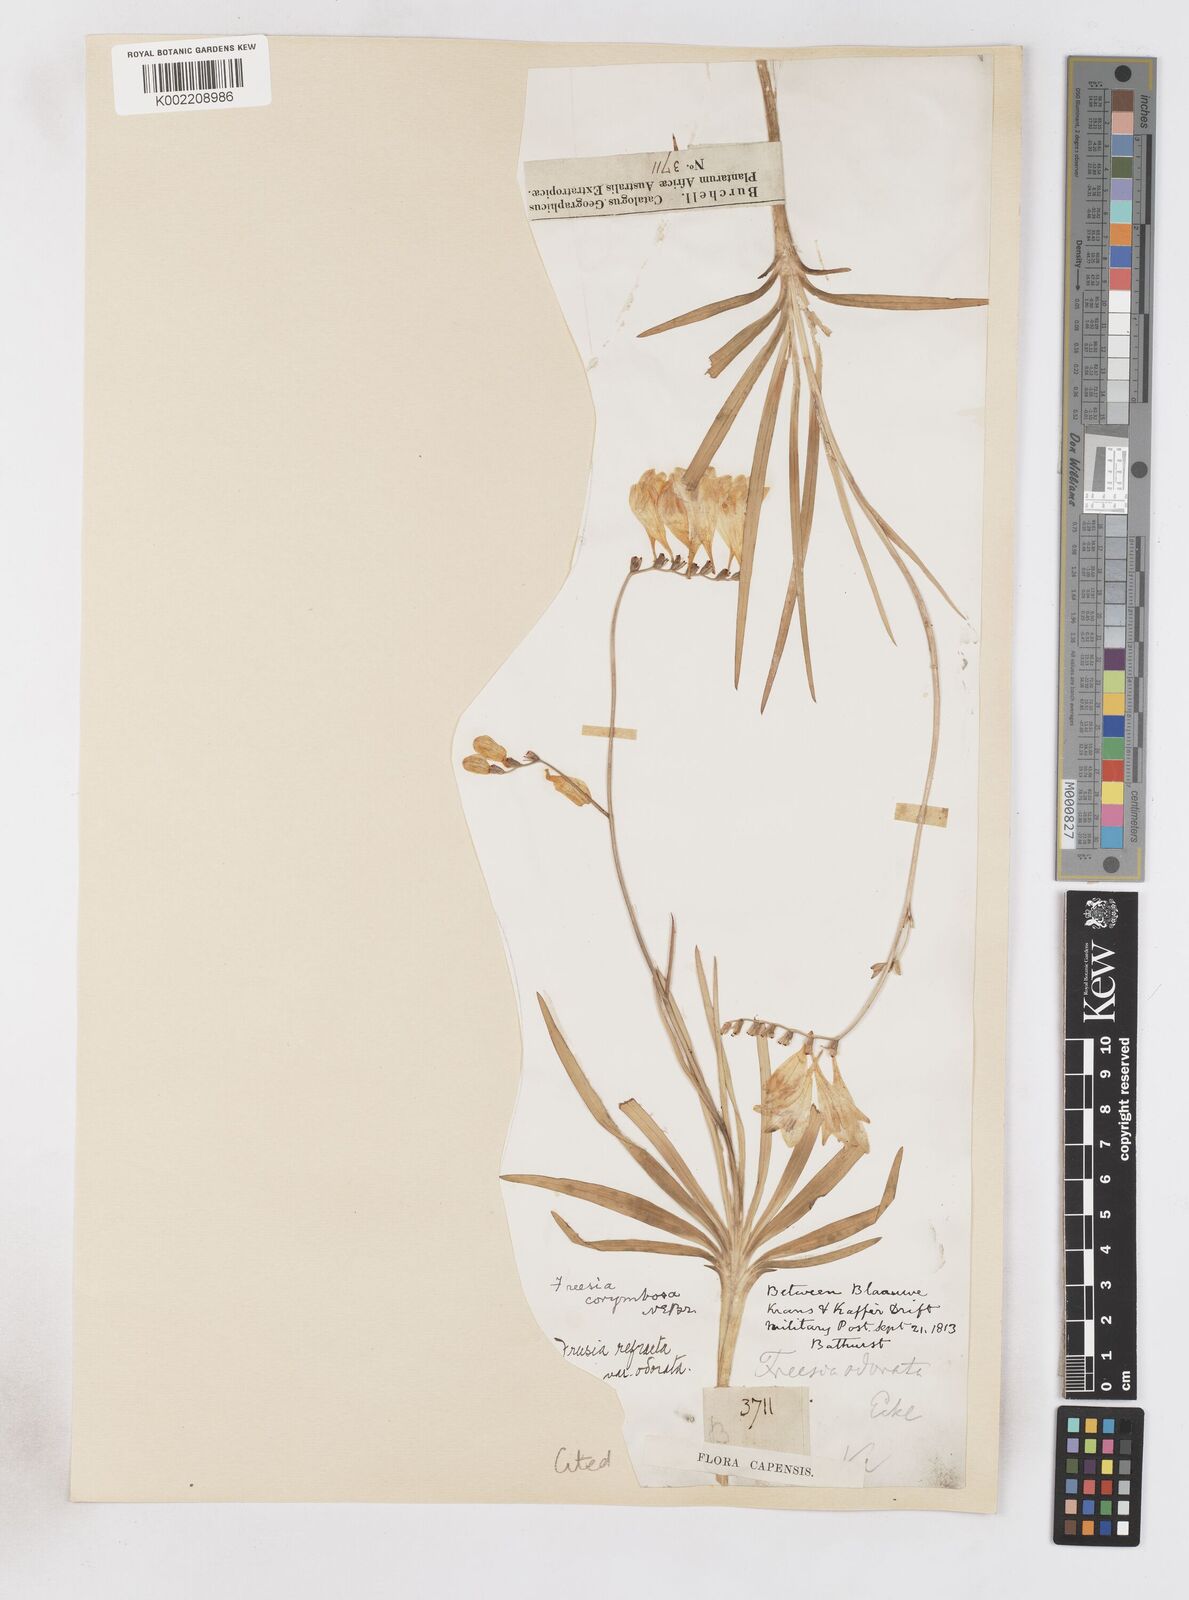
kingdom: Plantae
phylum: Tracheophyta
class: Liliopsida
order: Asparagales
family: Iridaceae
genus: Freesia
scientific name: Freesia corymbosa
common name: Common freesia
